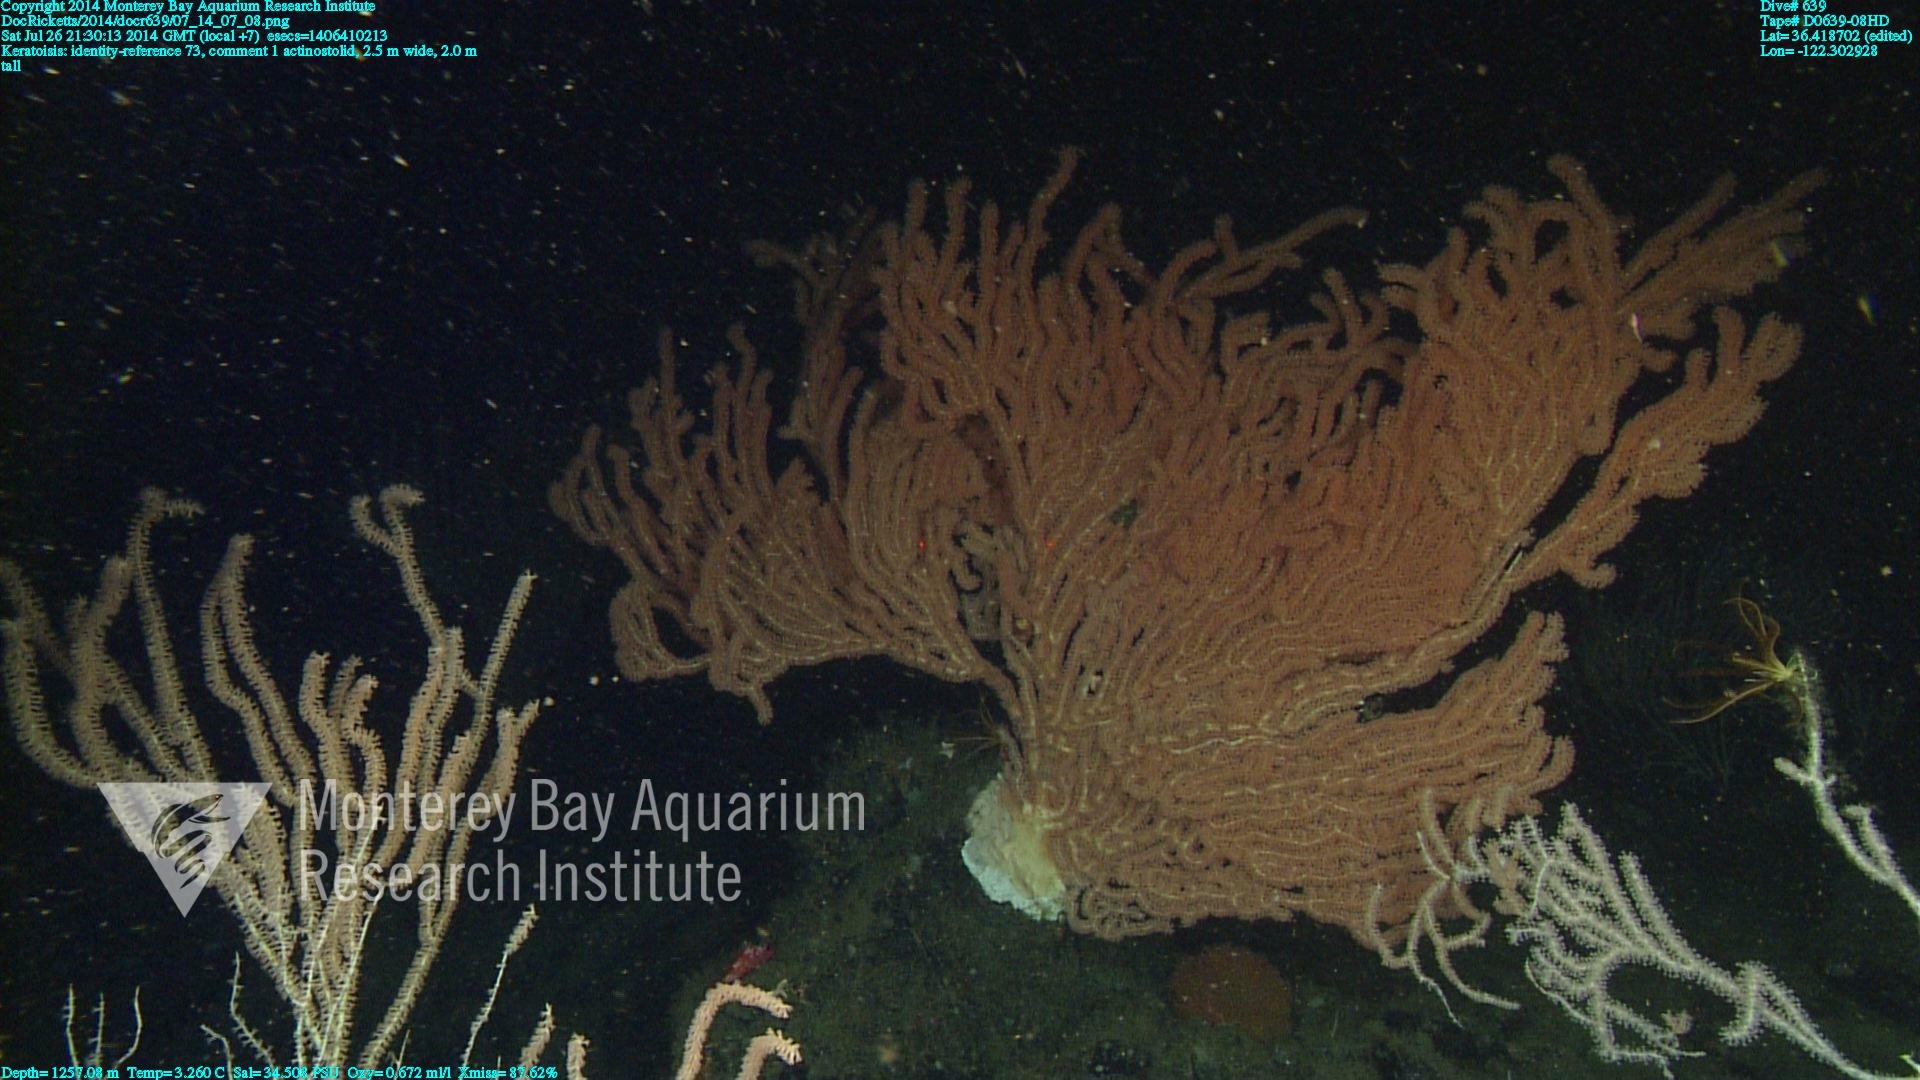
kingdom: Animalia
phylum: Cnidaria
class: Anthozoa
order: Scleralcyonacea
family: Keratoisididae
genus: Keratoisis
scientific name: Keratoisis
